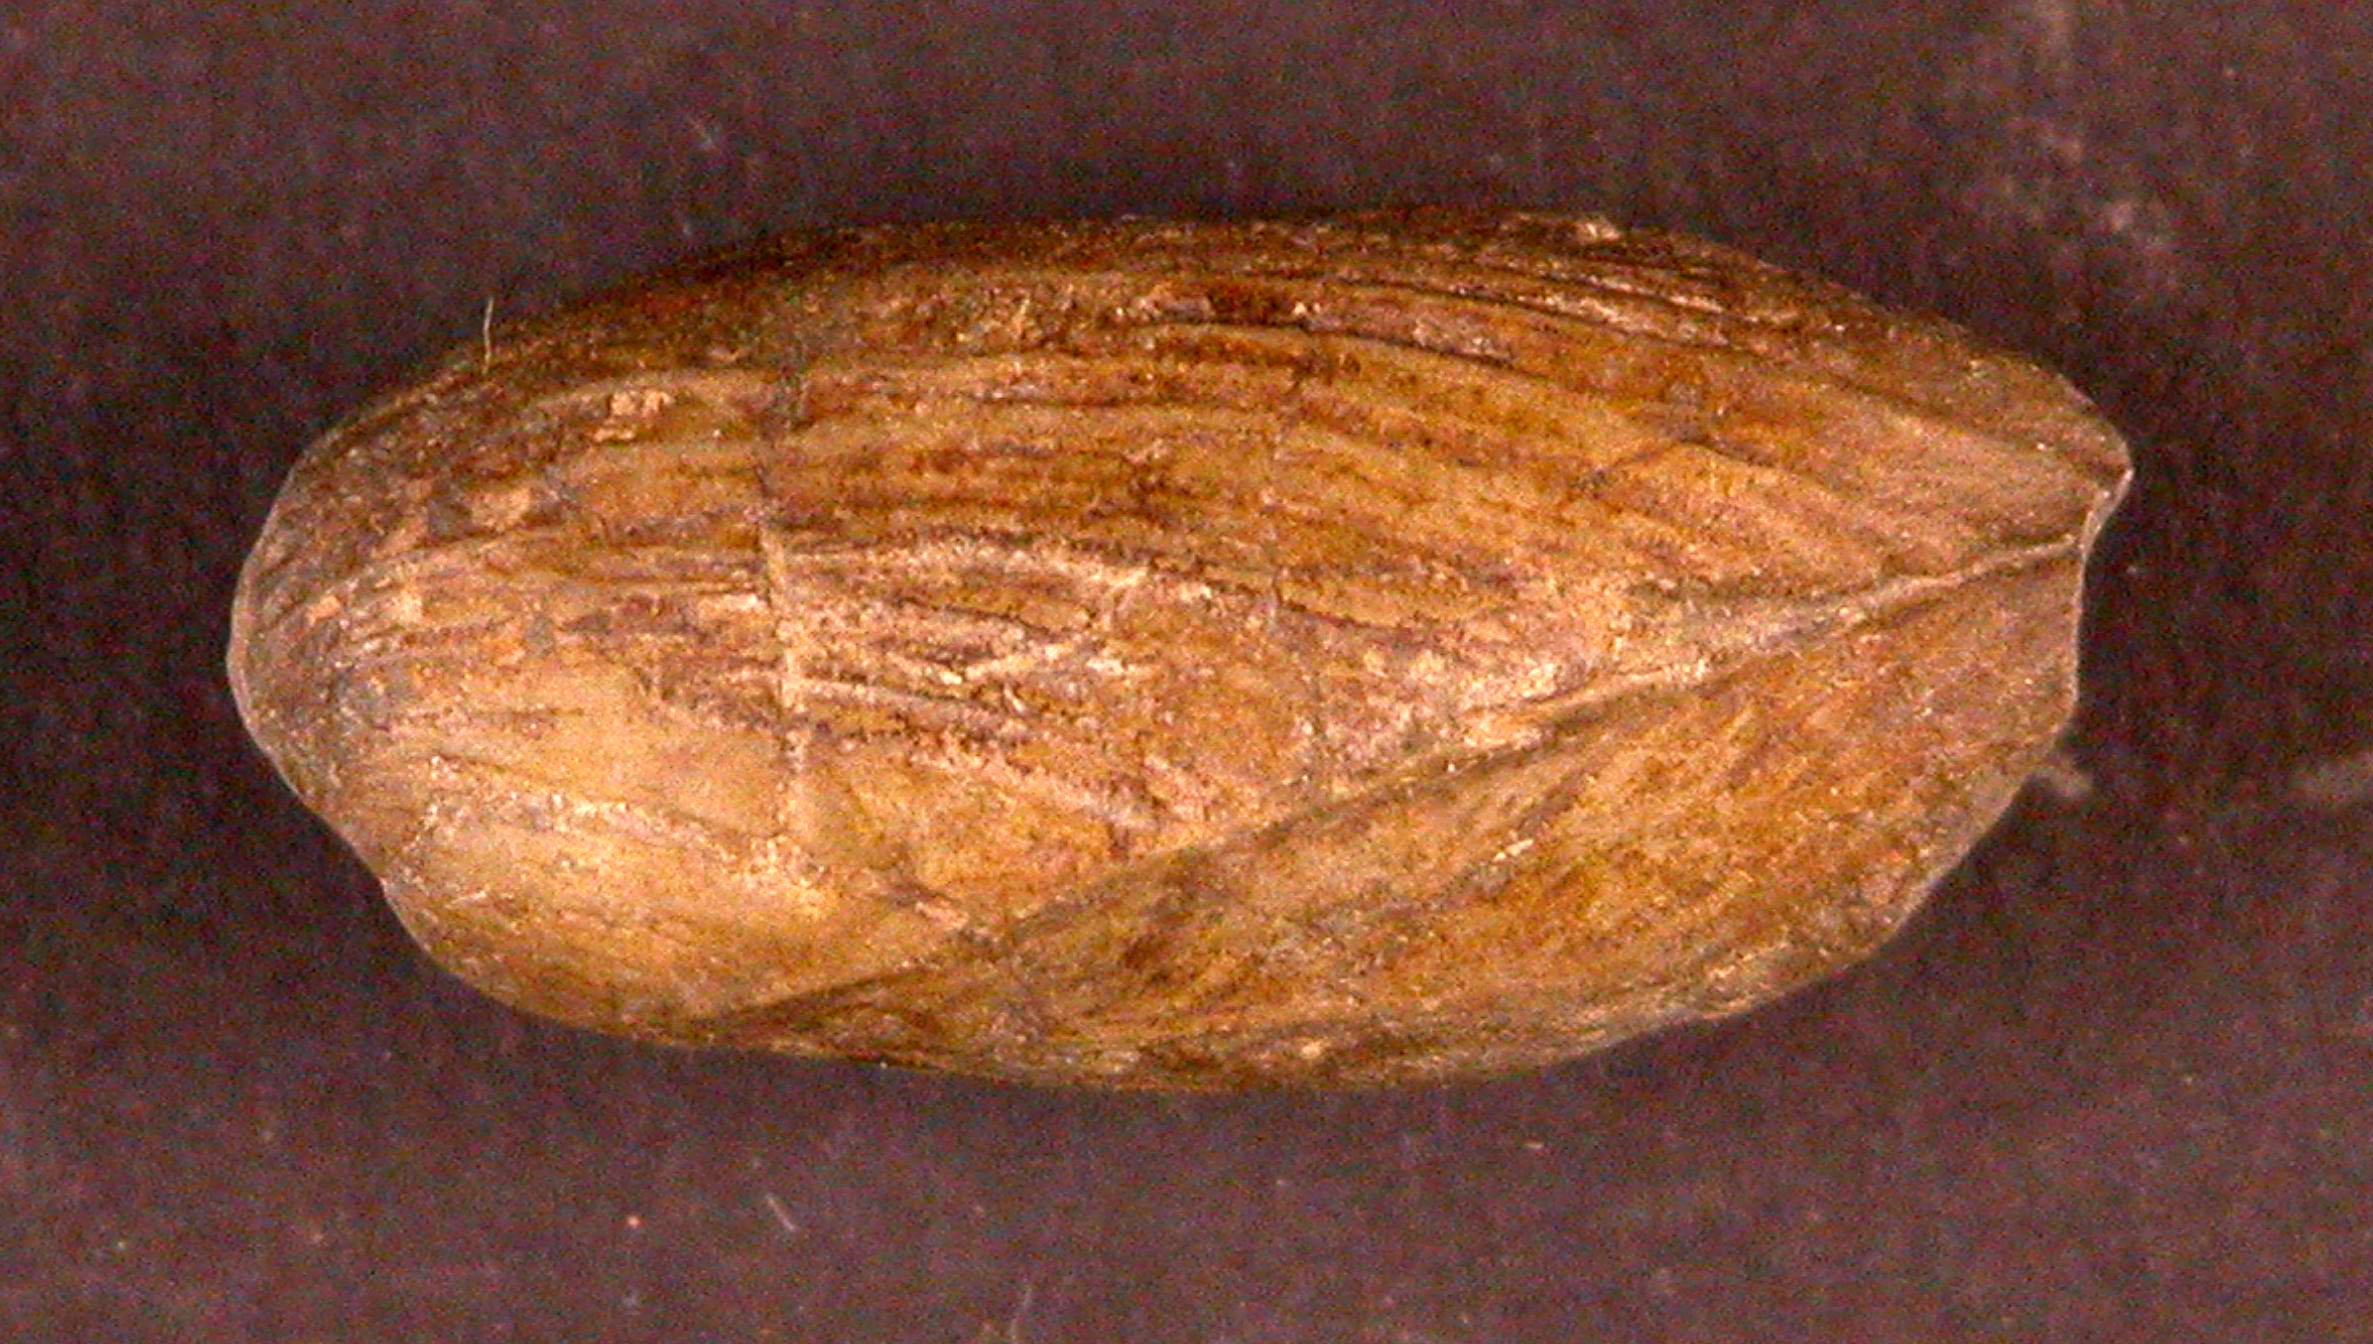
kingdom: Animalia
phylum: Arthropoda
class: Insecta
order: Coleoptera
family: Curculionidae
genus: Leptodomus
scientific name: Leptodomus
